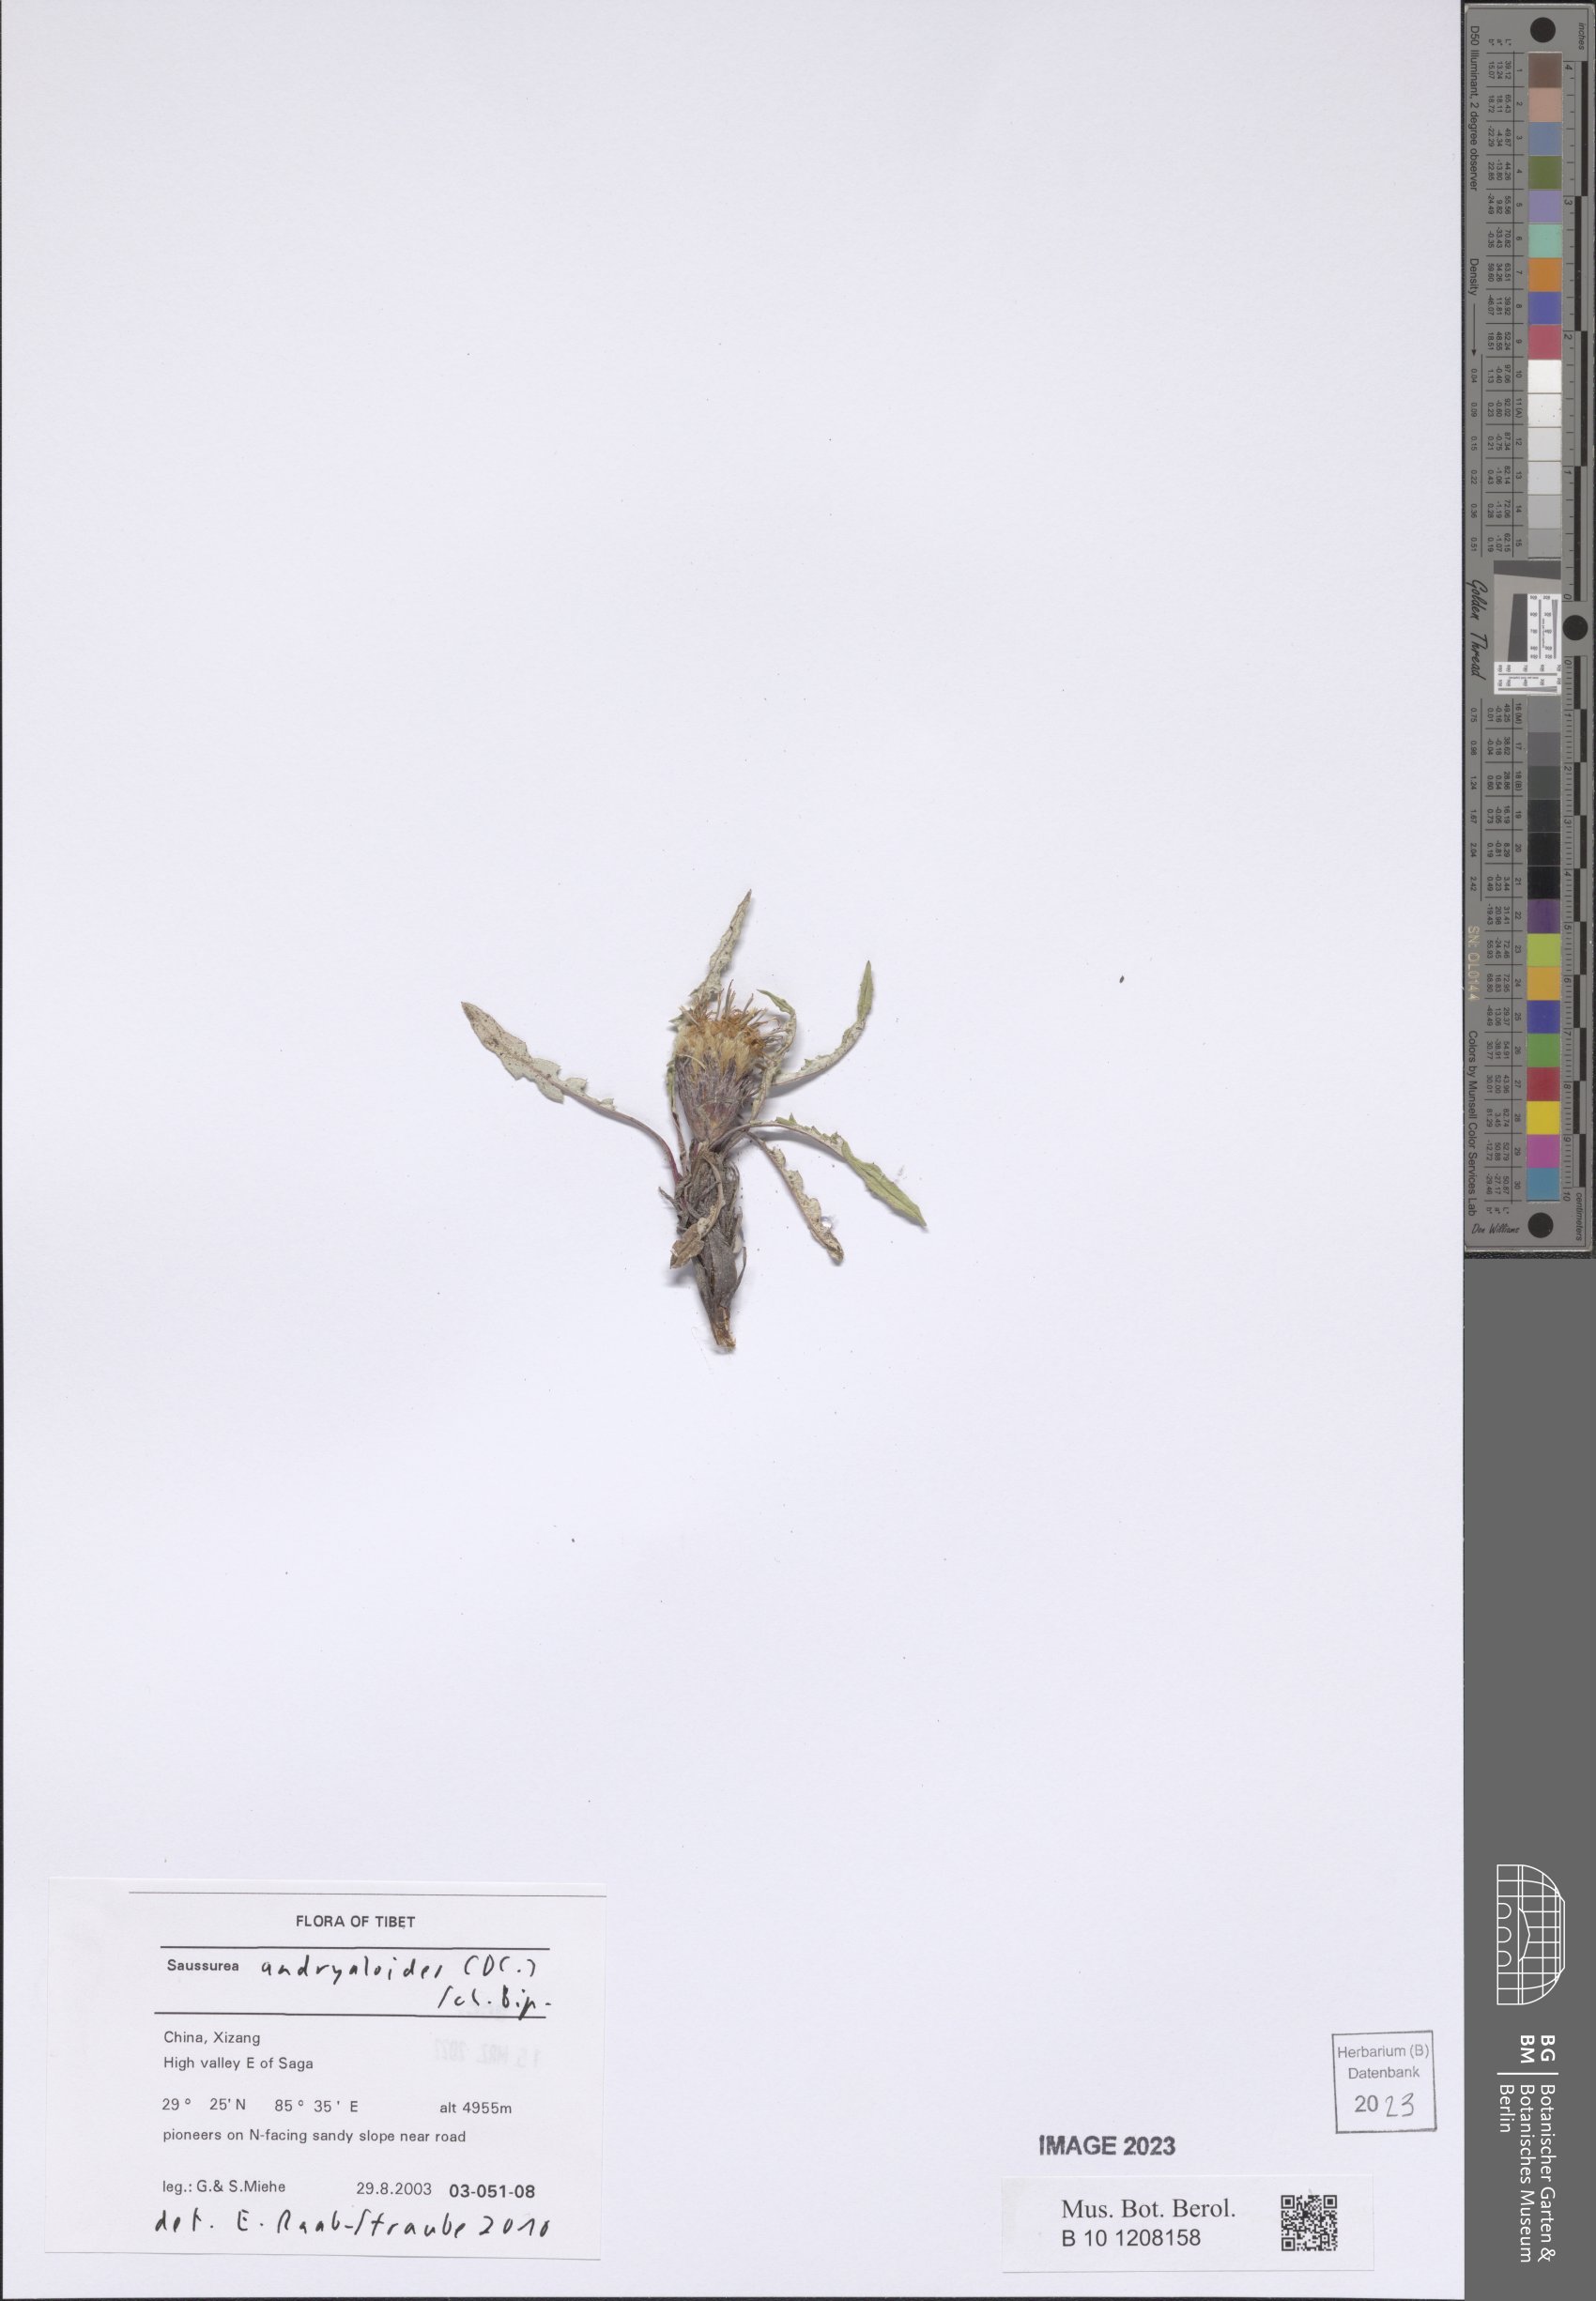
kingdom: Plantae
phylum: Tracheophyta
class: Magnoliopsida
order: Asterales
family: Asteraceae
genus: Saussurea
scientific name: Saussurea andryaloides
